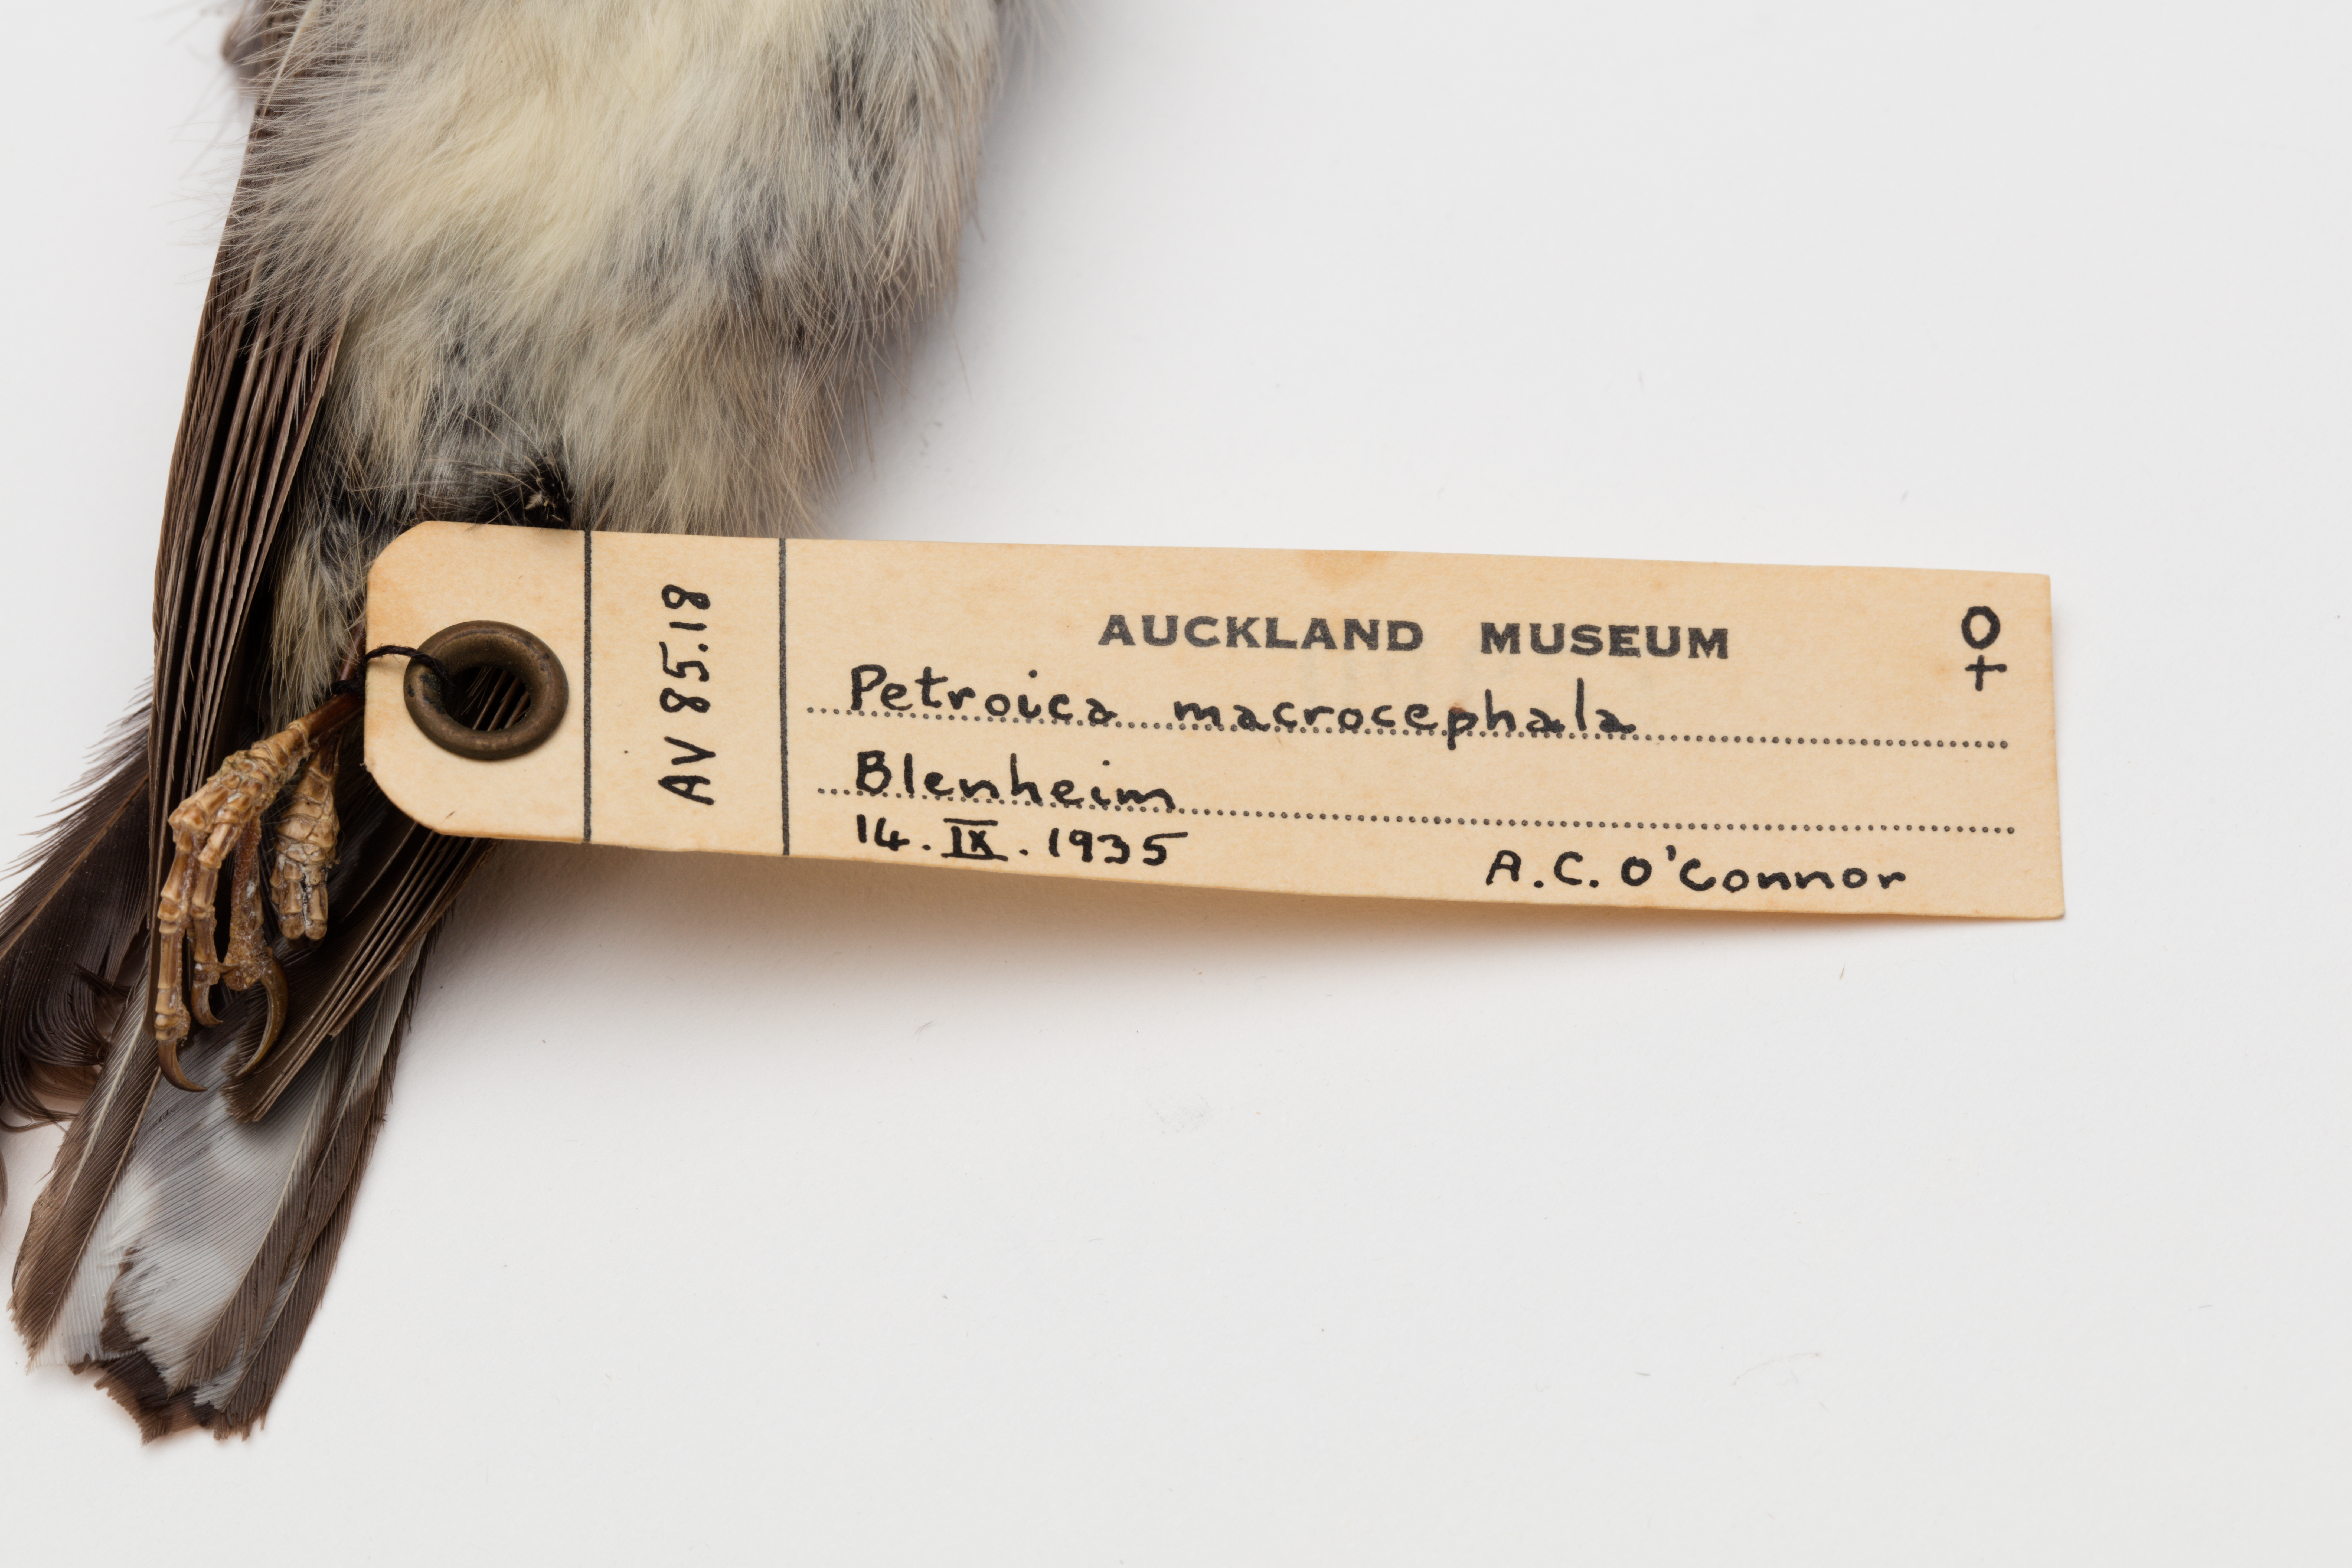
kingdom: Animalia
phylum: Chordata
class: Aves
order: Passeriformes
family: Petroicidae
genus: Petroica
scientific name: Petroica macrocephala
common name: Tomtit
